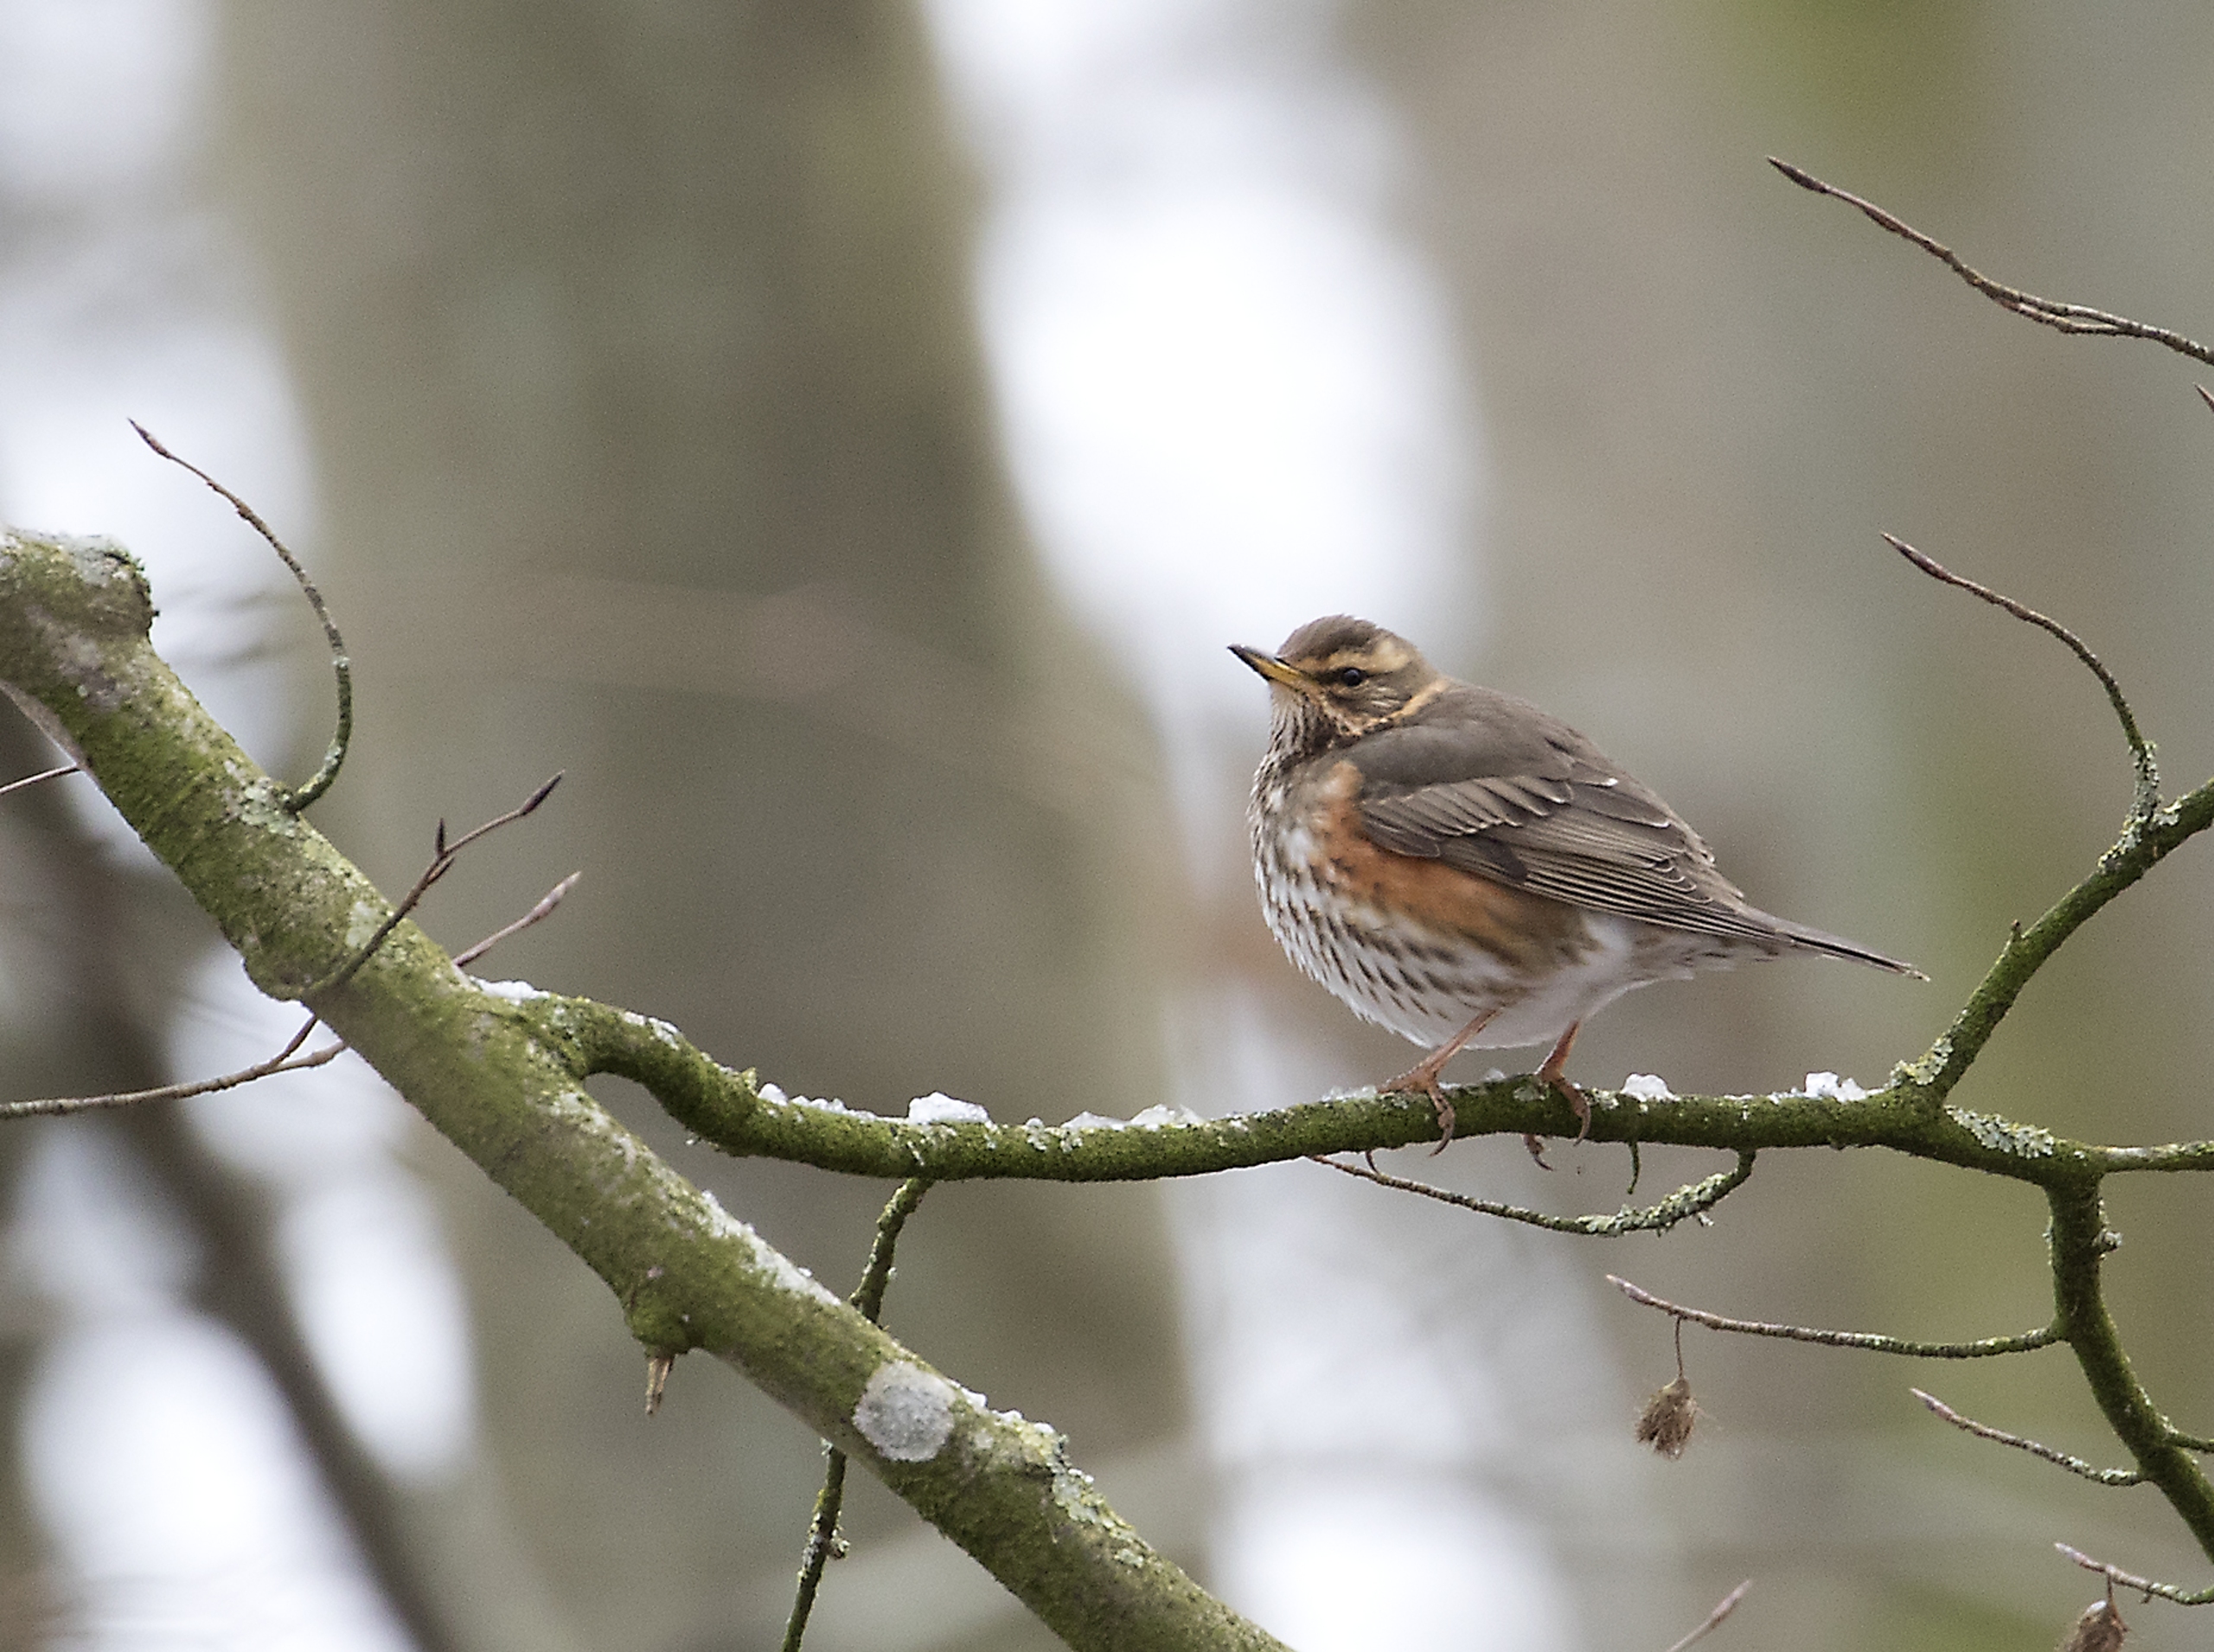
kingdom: Animalia
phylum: Chordata
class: Aves
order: Passeriformes
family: Turdidae
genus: Turdus
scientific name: Turdus iliacus
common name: Vindrossel
